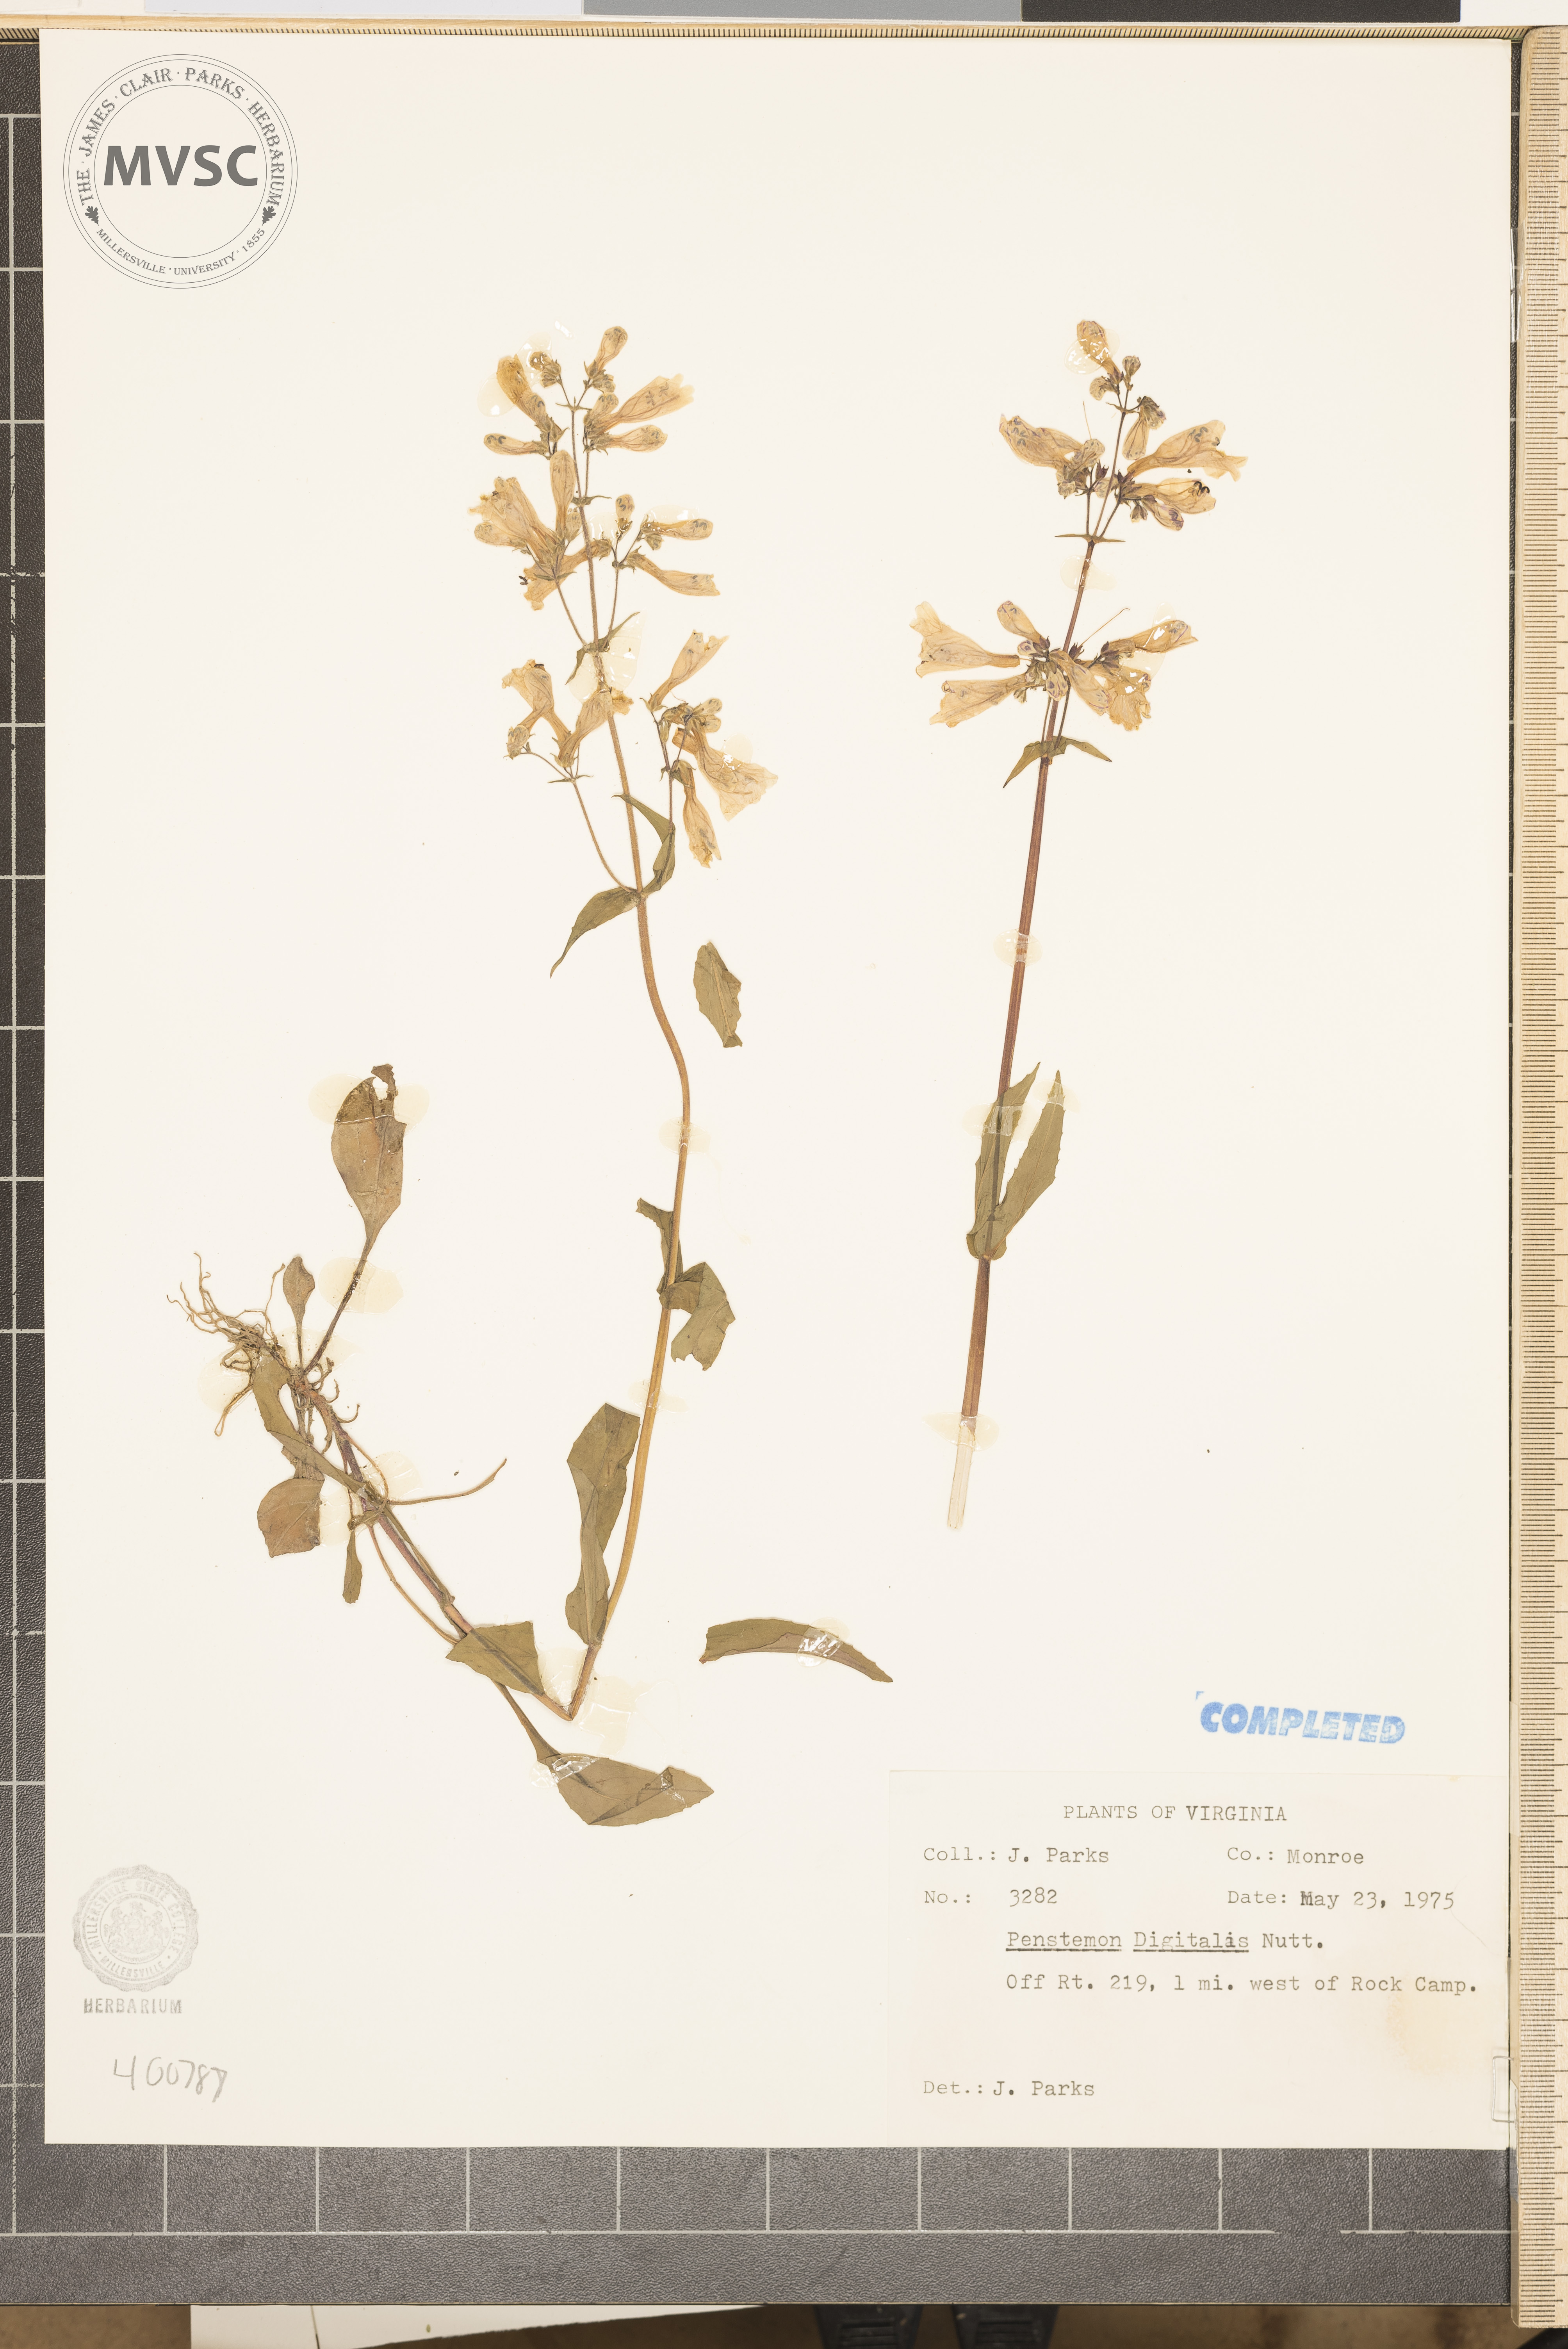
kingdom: Plantae
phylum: Tracheophyta
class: Magnoliopsida
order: Lamiales
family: Plantaginaceae
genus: Penstemon
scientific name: Penstemon digitalis
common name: Foxglove beardtongue
